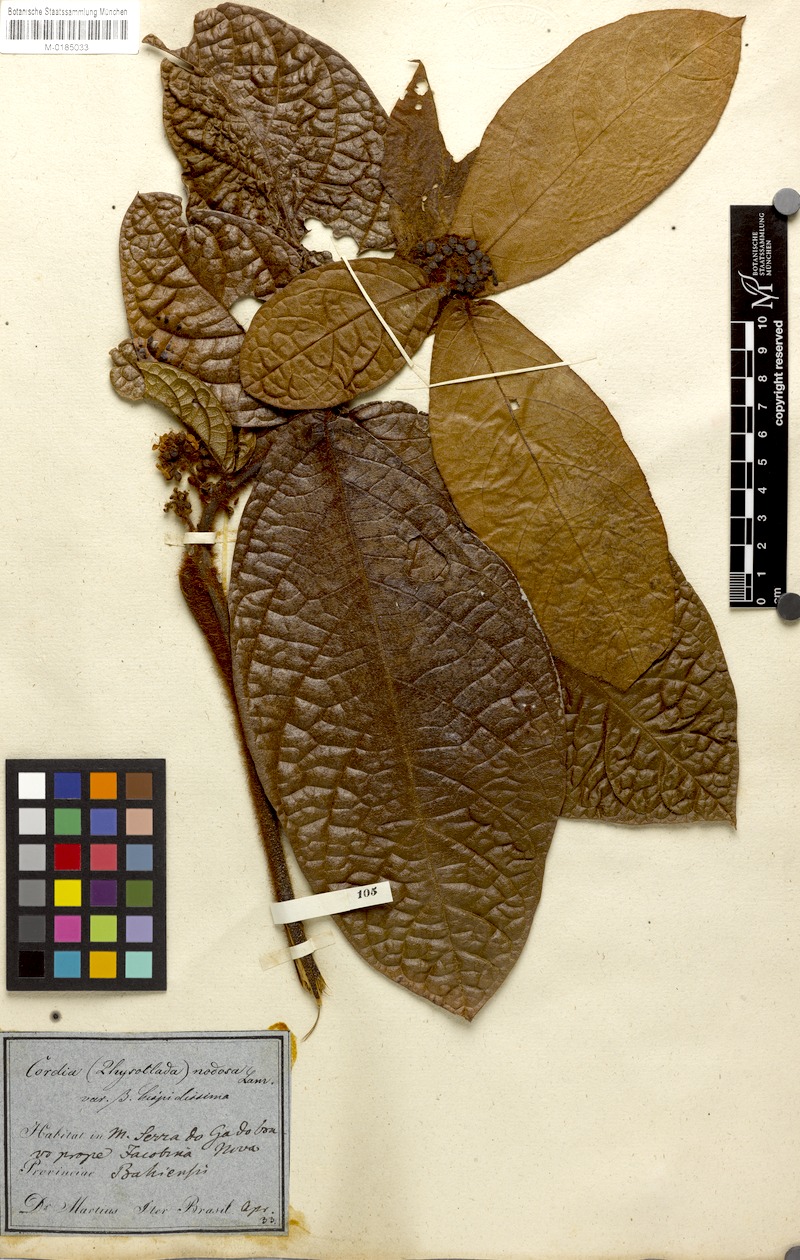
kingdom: Plantae
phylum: Tracheophyta
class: Magnoliopsida
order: Boraginales
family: Cordiaceae
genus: Cordia
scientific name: Cordia nodosa
